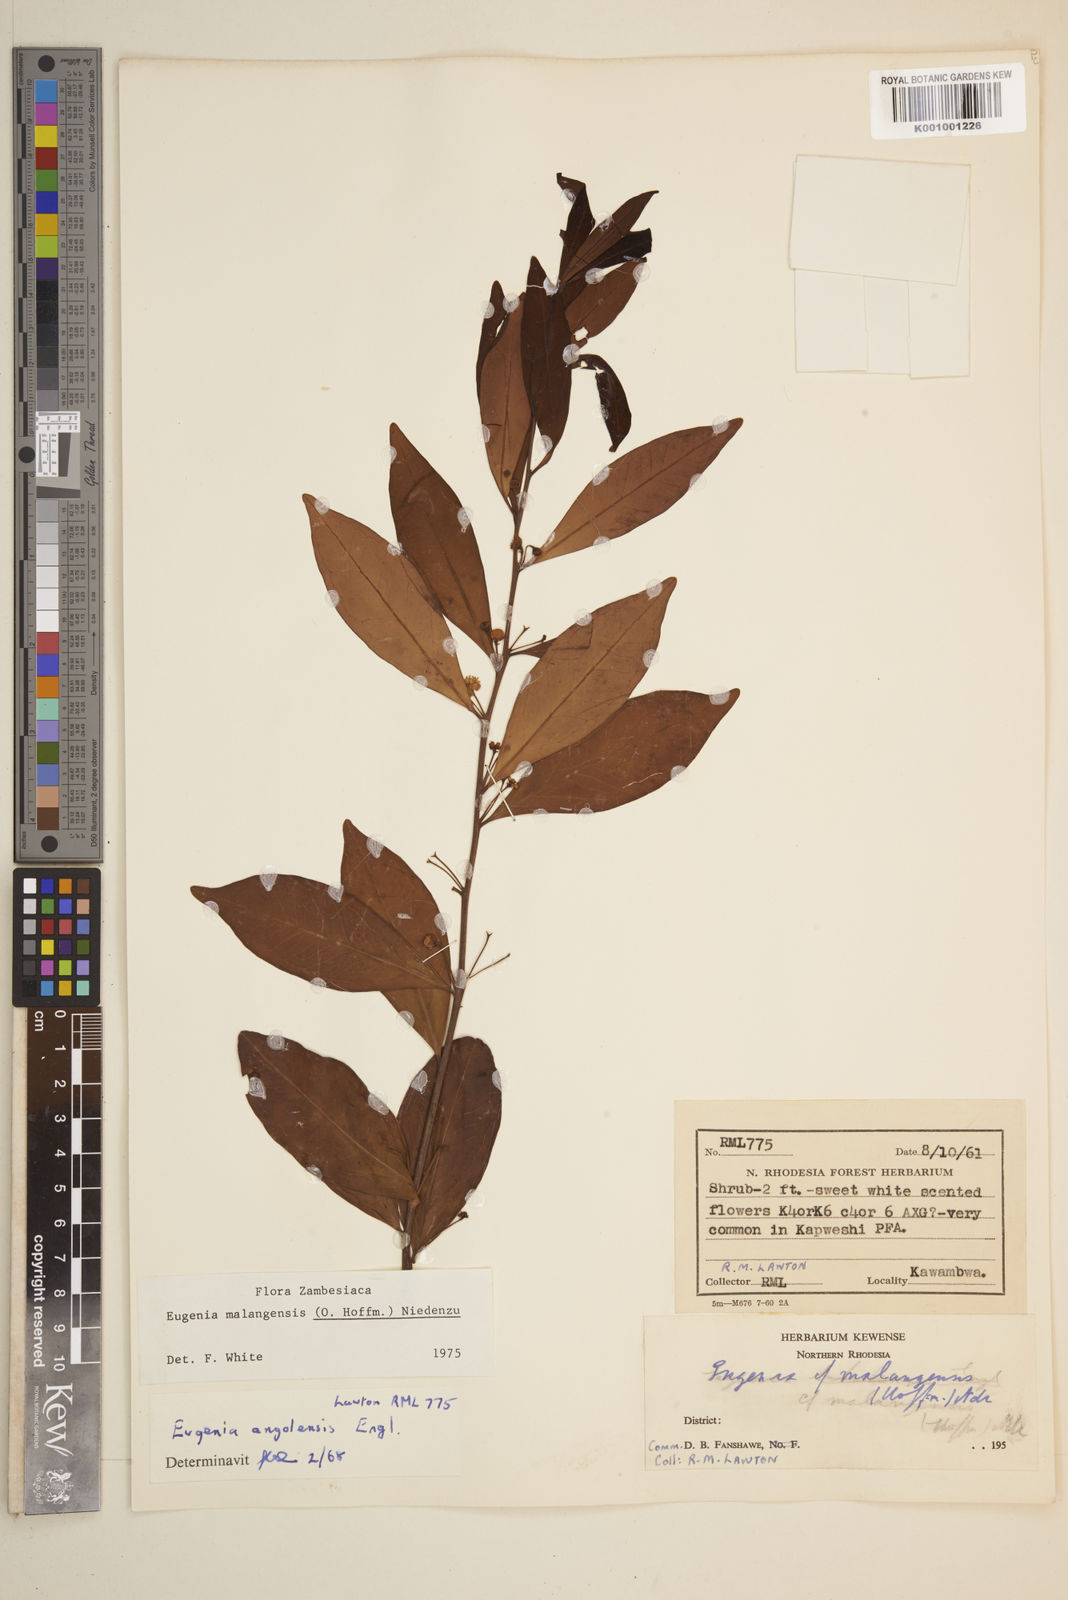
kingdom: Plantae
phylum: Tracheophyta
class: Magnoliopsida
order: Myrtales
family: Myrtaceae
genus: Eugenia
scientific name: Eugenia malangensis
